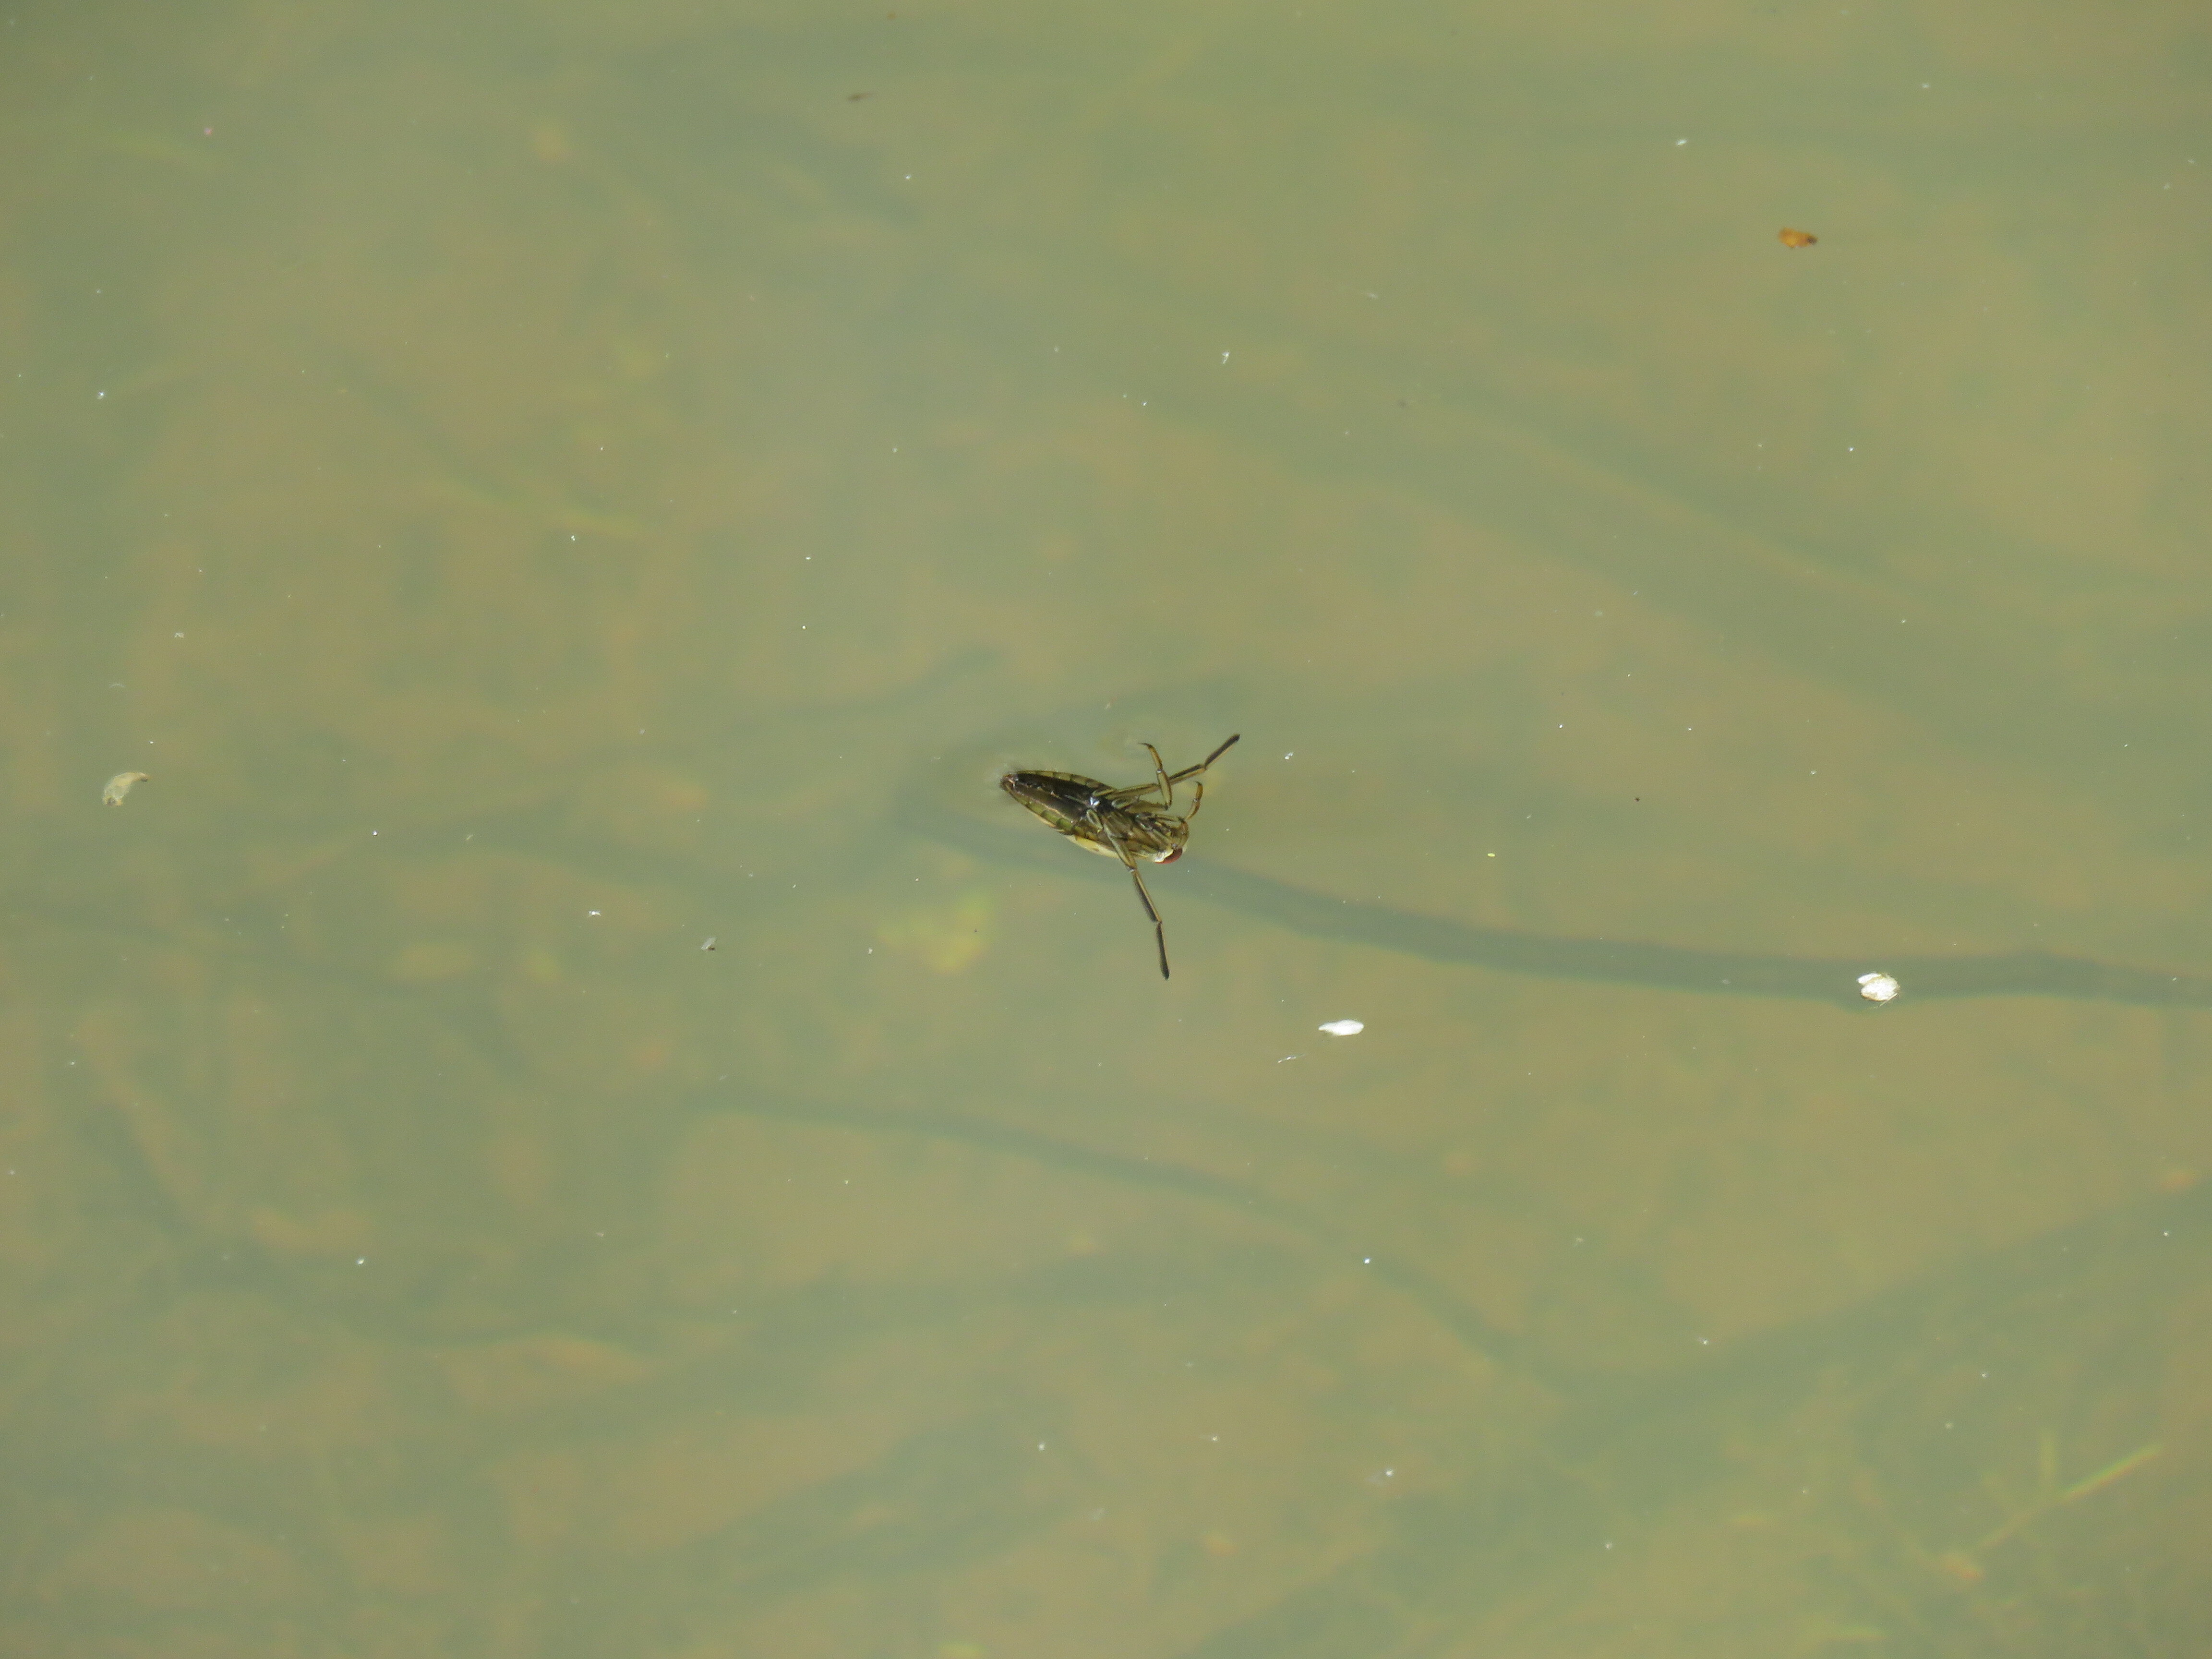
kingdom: Animalia
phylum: Arthropoda
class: Insecta
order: Hemiptera
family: Notonectidae
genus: Notonecta
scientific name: Notonecta
